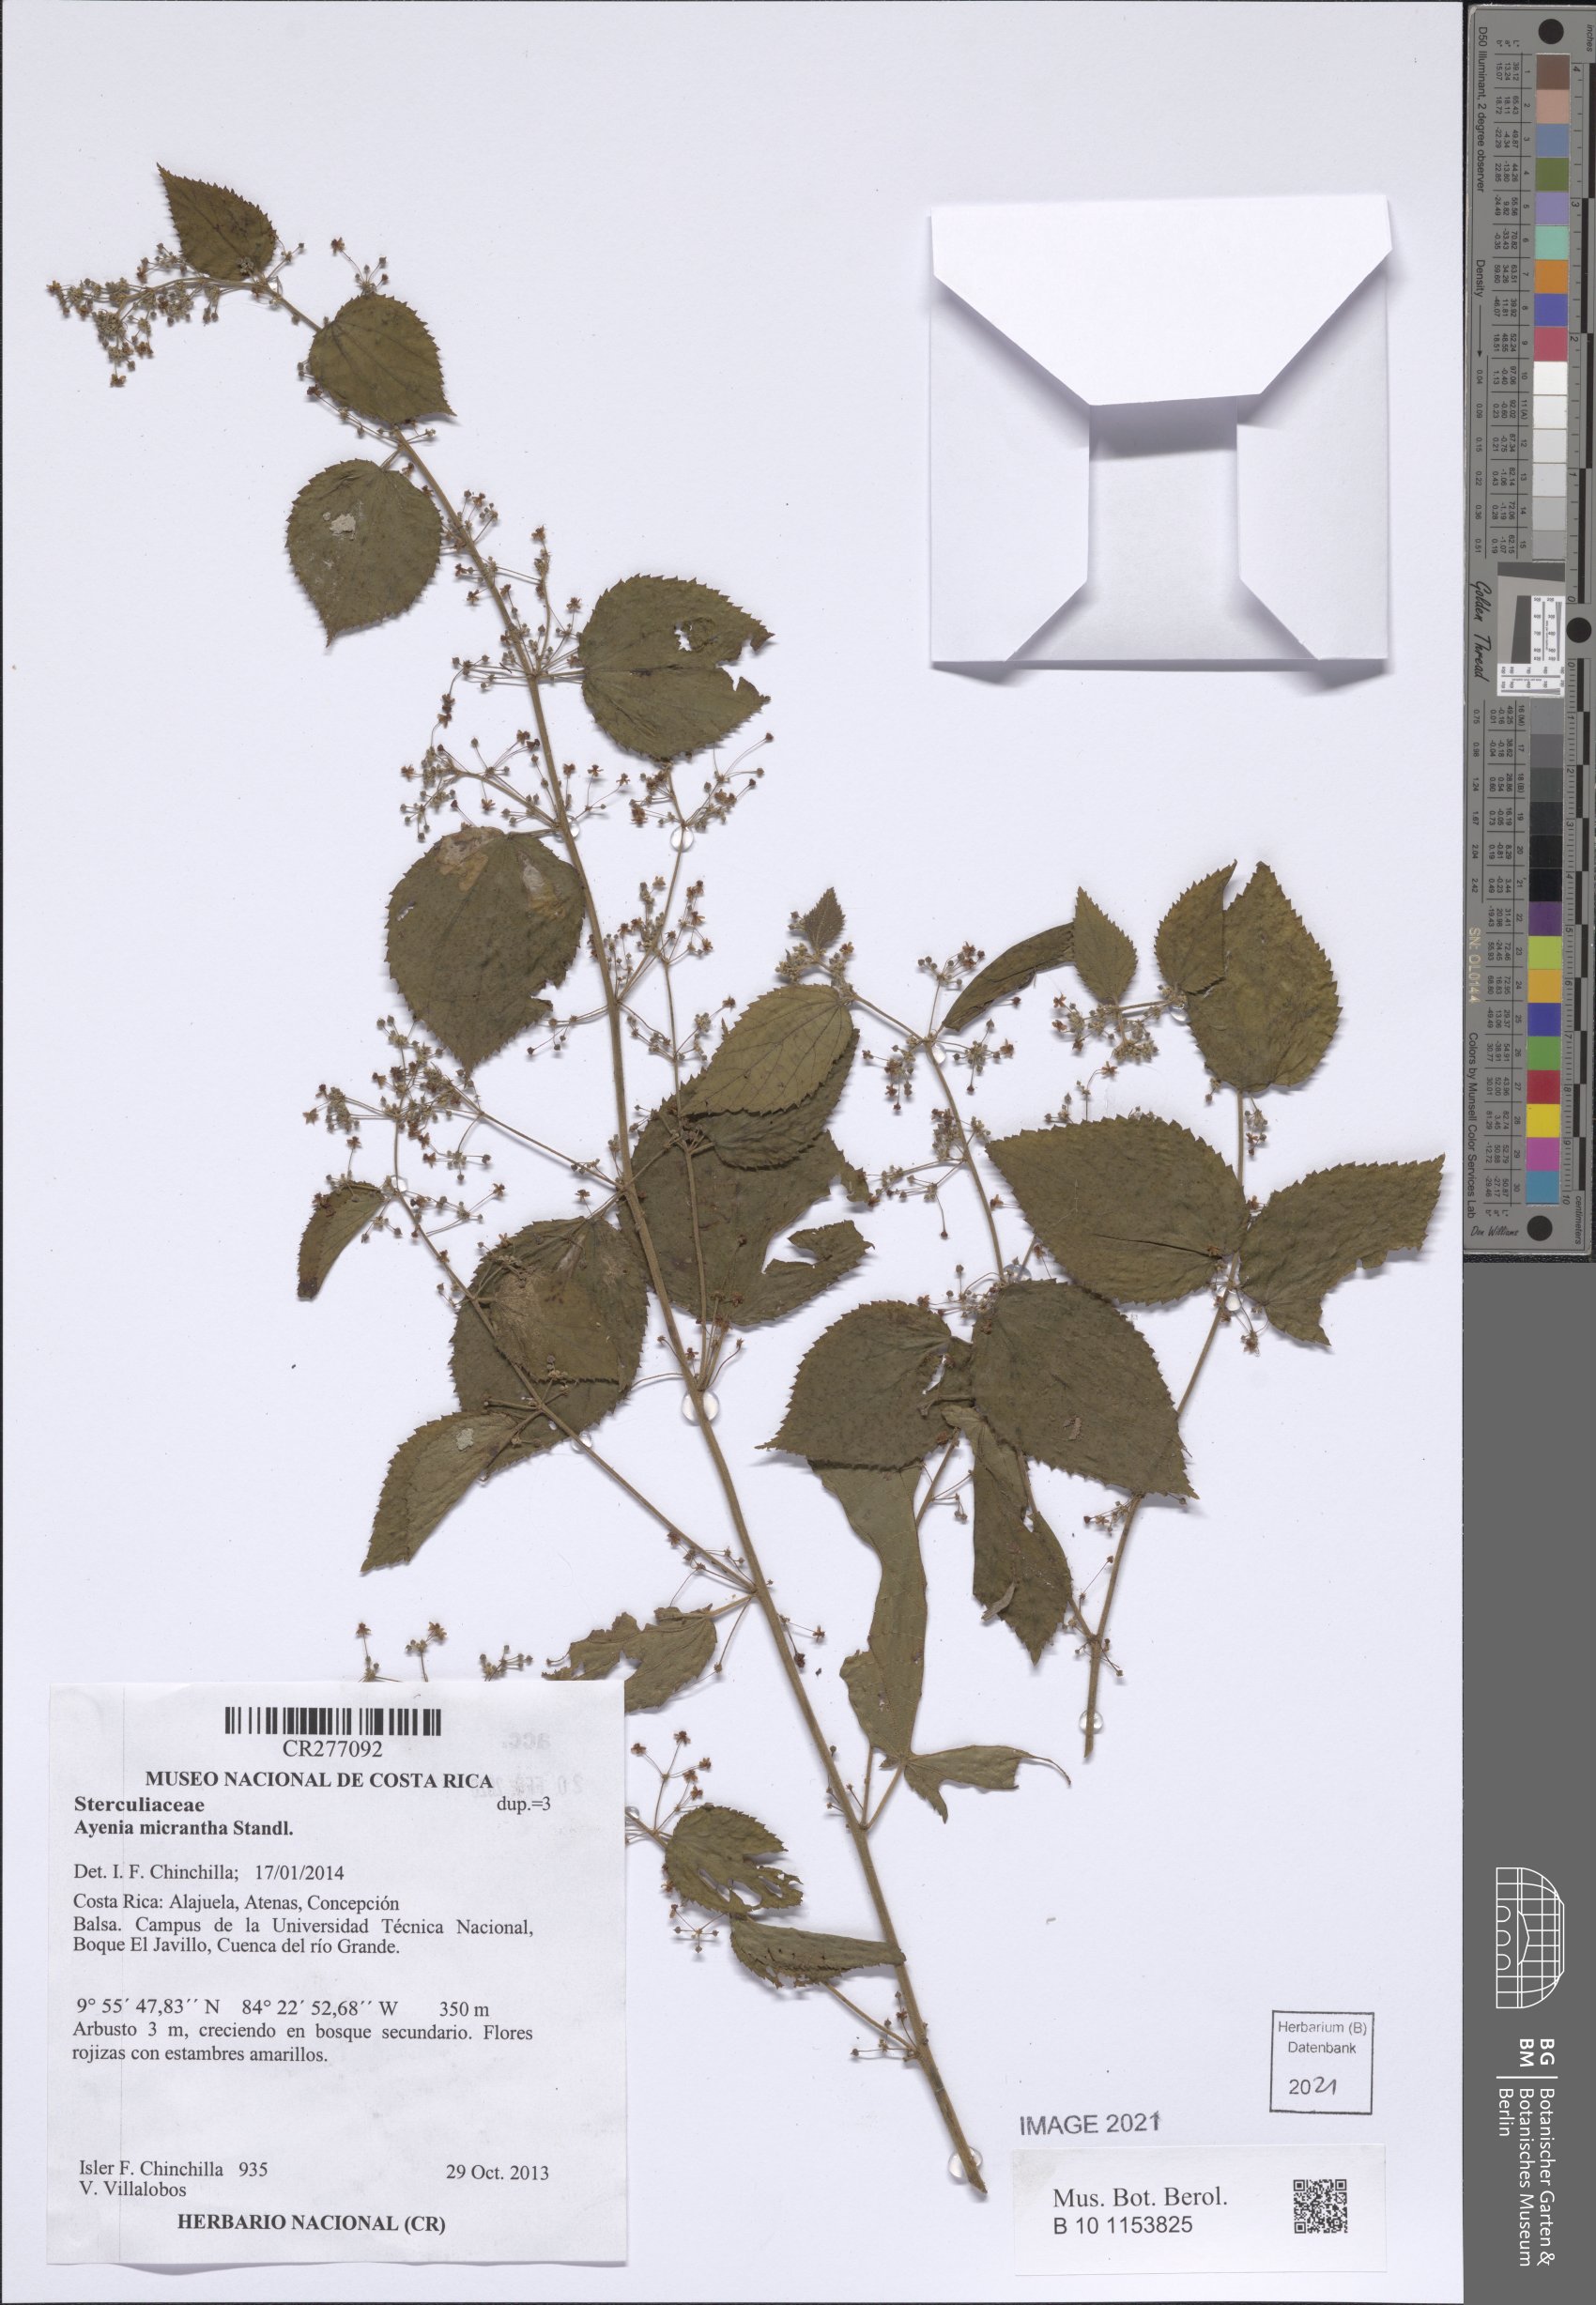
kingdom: Plantae
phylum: Tracheophyta
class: Magnoliopsida
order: Malvales
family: Malvaceae
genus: Ayenia
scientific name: Ayenia micrantha
